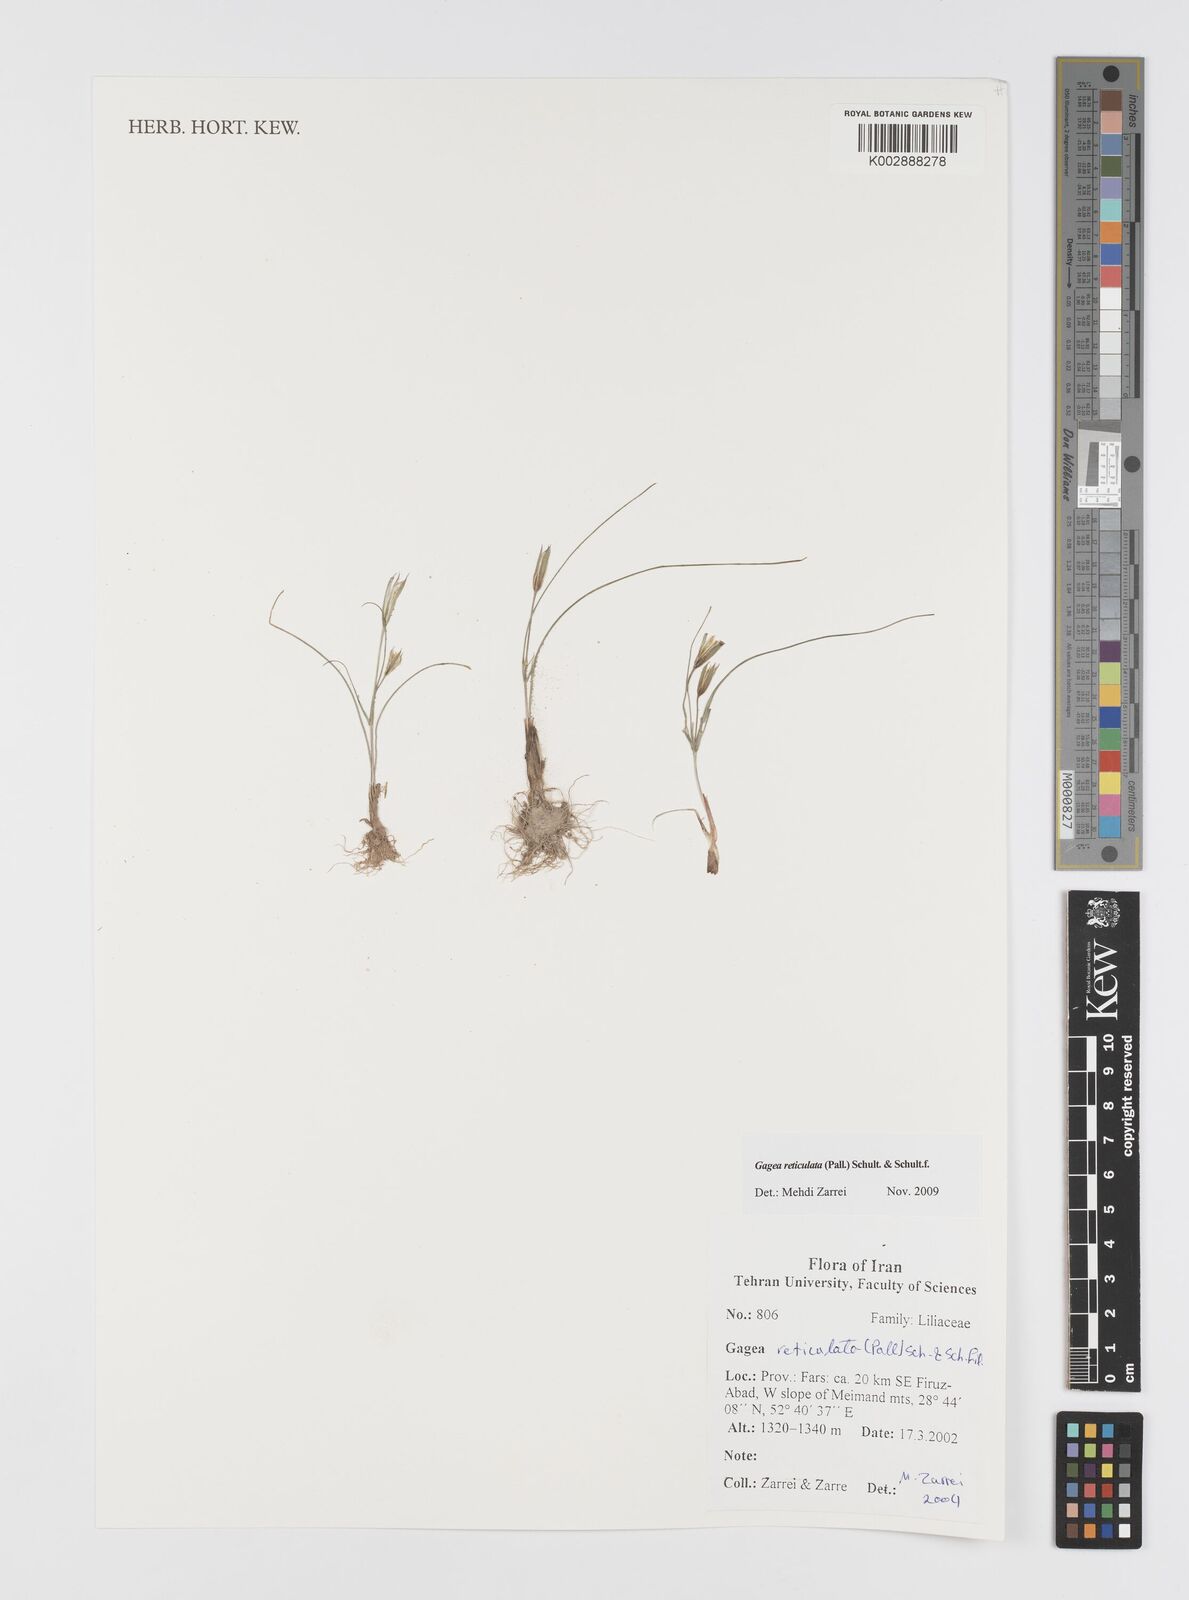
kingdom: Plantae
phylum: Tracheophyta
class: Liliopsida
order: Liliales
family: Liliaceae
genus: Gagea
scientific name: Gagea reticulata
